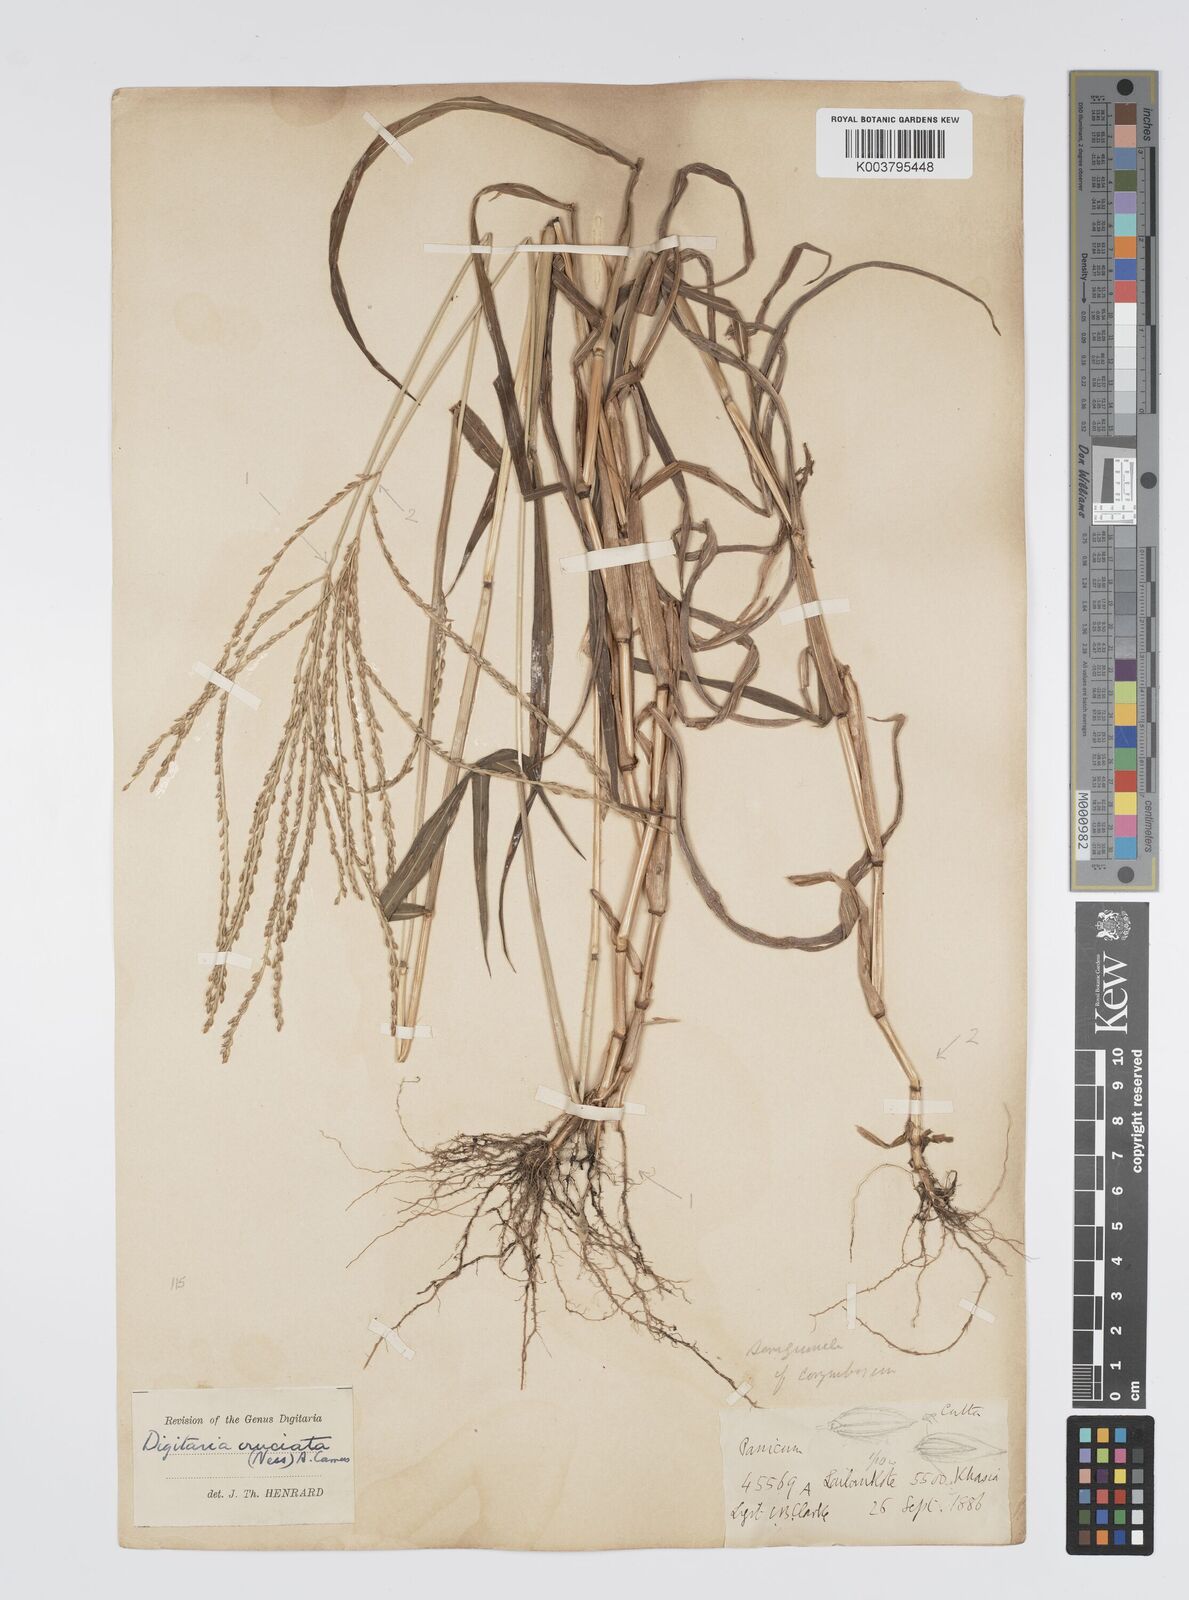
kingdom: Plantae
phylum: Tracheophyta
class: Liliopsida
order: Poales
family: Poaceae
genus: Digitaria
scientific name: Digitaria cruciata
